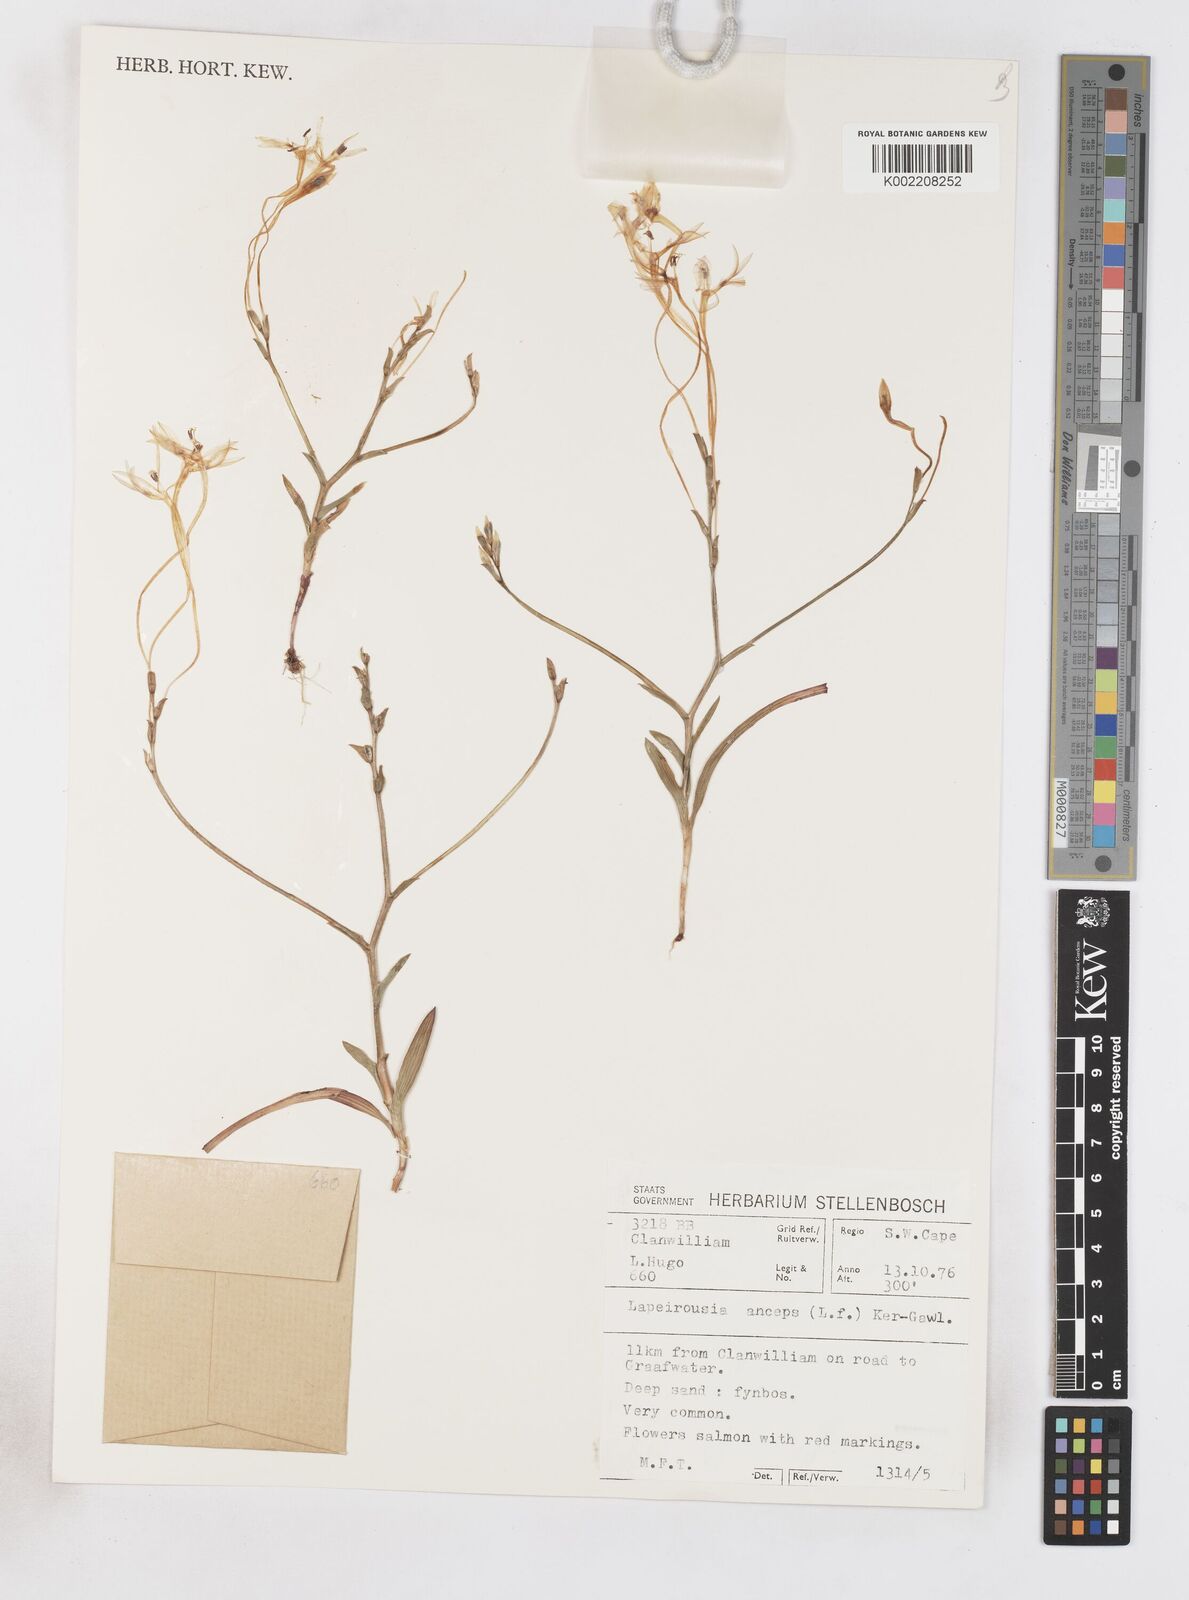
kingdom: Plantae
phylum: Tracheophyta
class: Liliopsida
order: Asparagales
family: Iridaceae
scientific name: Iridaceae
